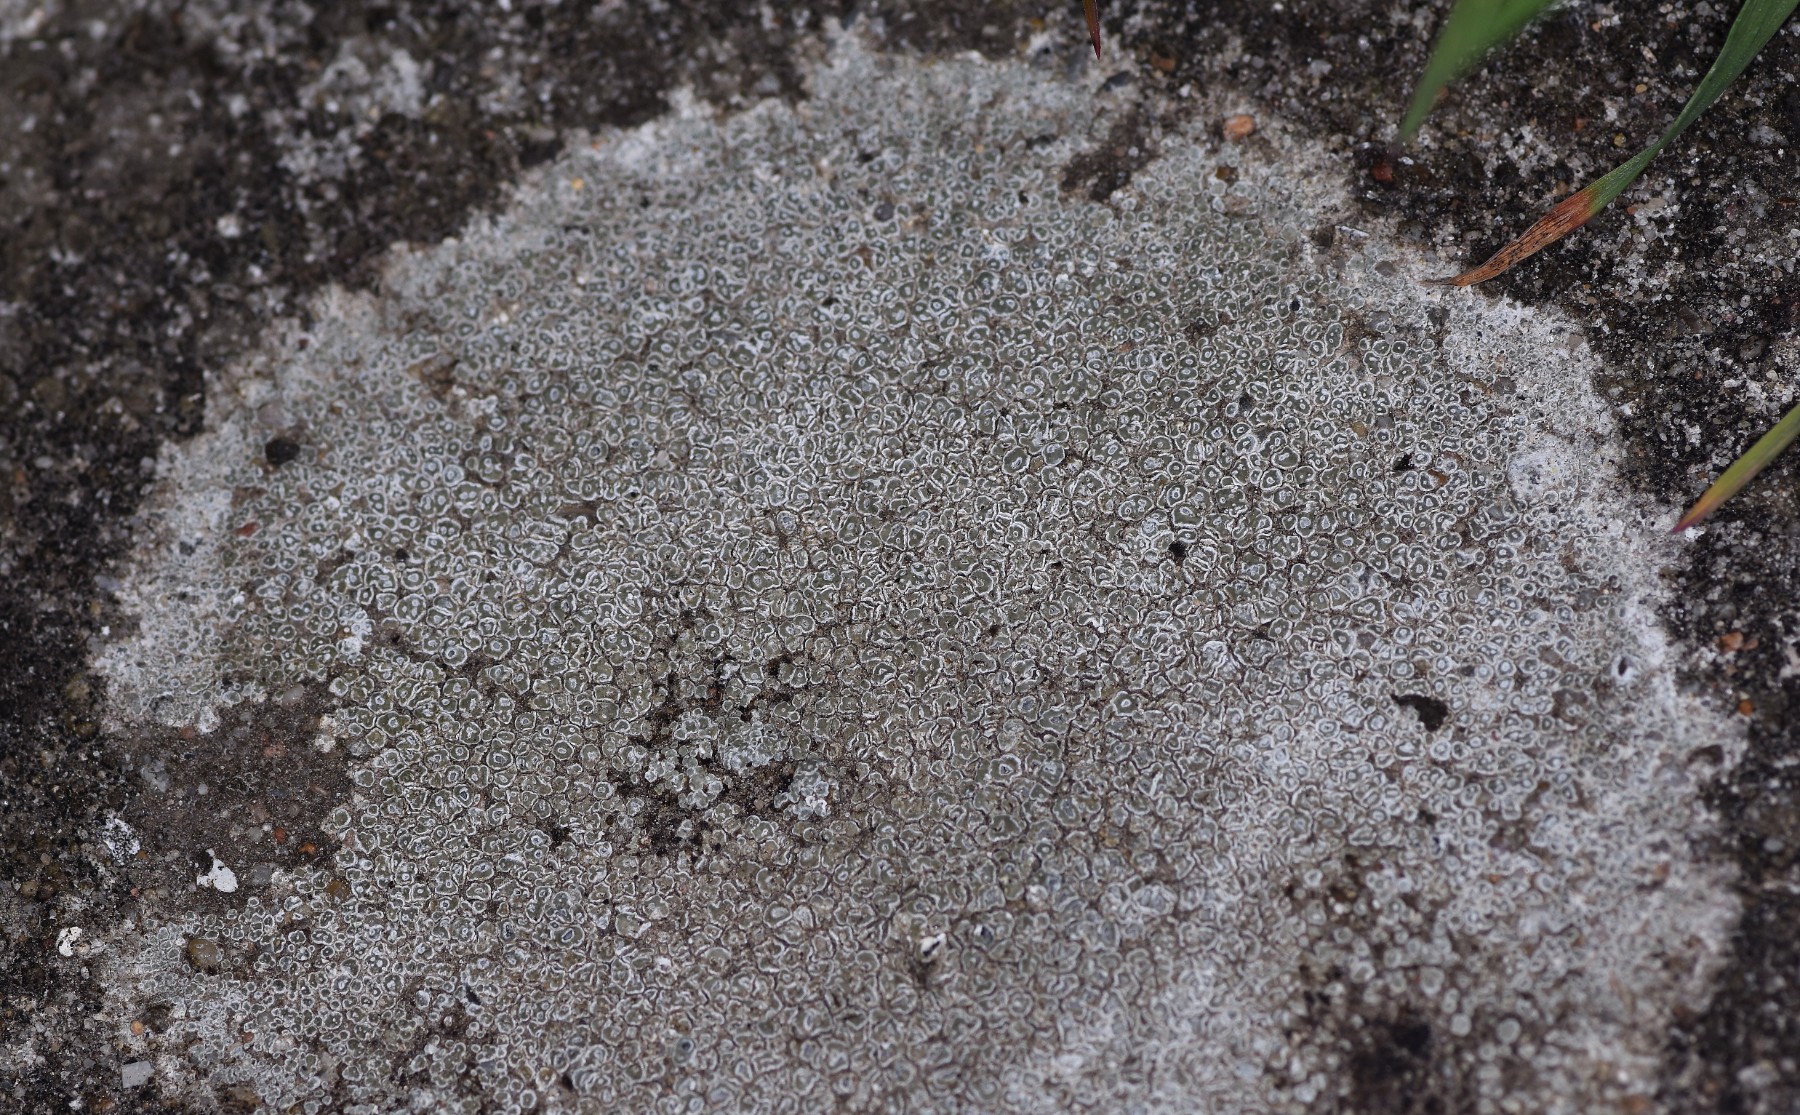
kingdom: Fungi
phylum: Ascomycota
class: Lecanoromycetes
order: Pertusariales
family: Megasporaceae
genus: Circinaria
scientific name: Circinaria contorta
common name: indviklet hulskivelav
